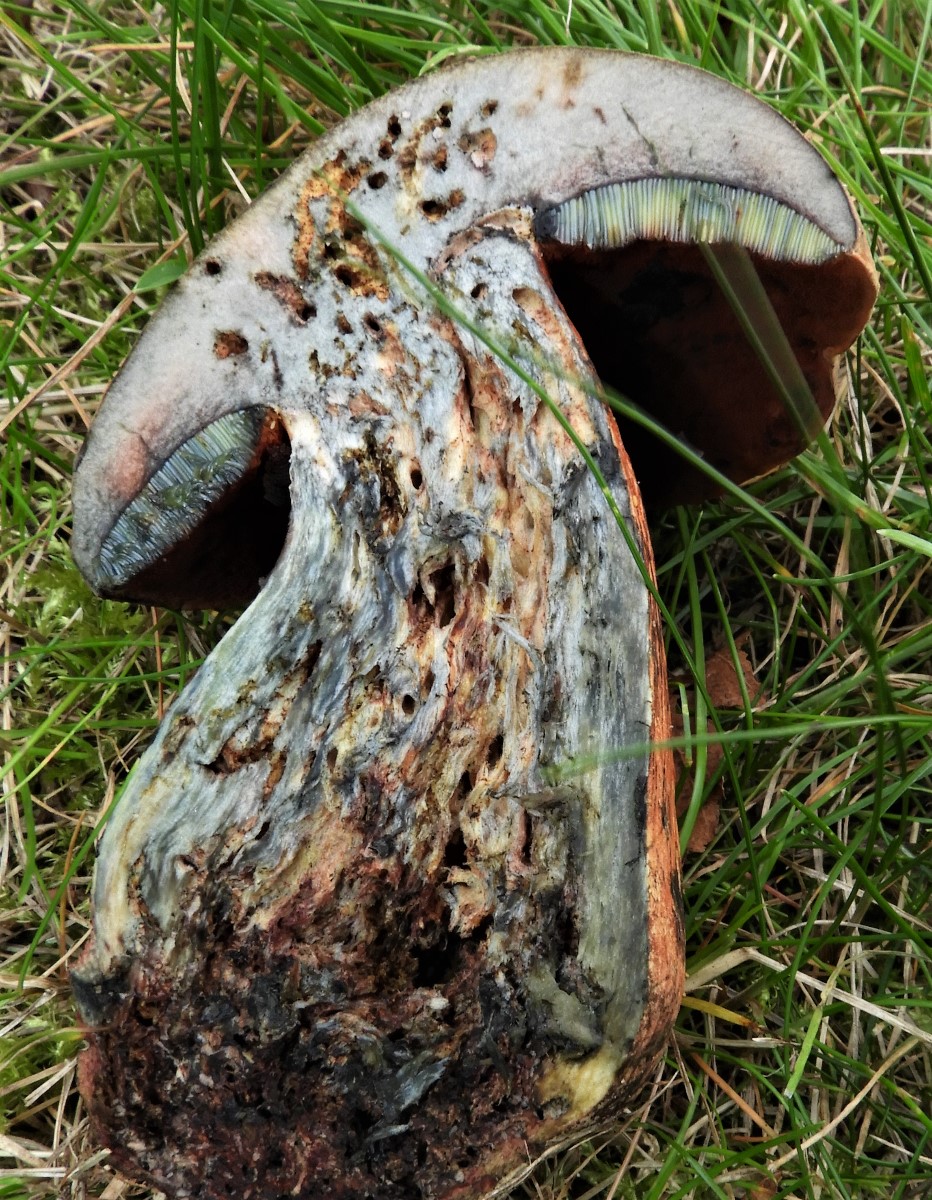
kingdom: Fungi
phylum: Basidiomycota
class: Agaricomycetes
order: Boletales
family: Boletaceae
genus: Suillellus
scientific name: Suillellus luridus
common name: netstokket indigorørhat
